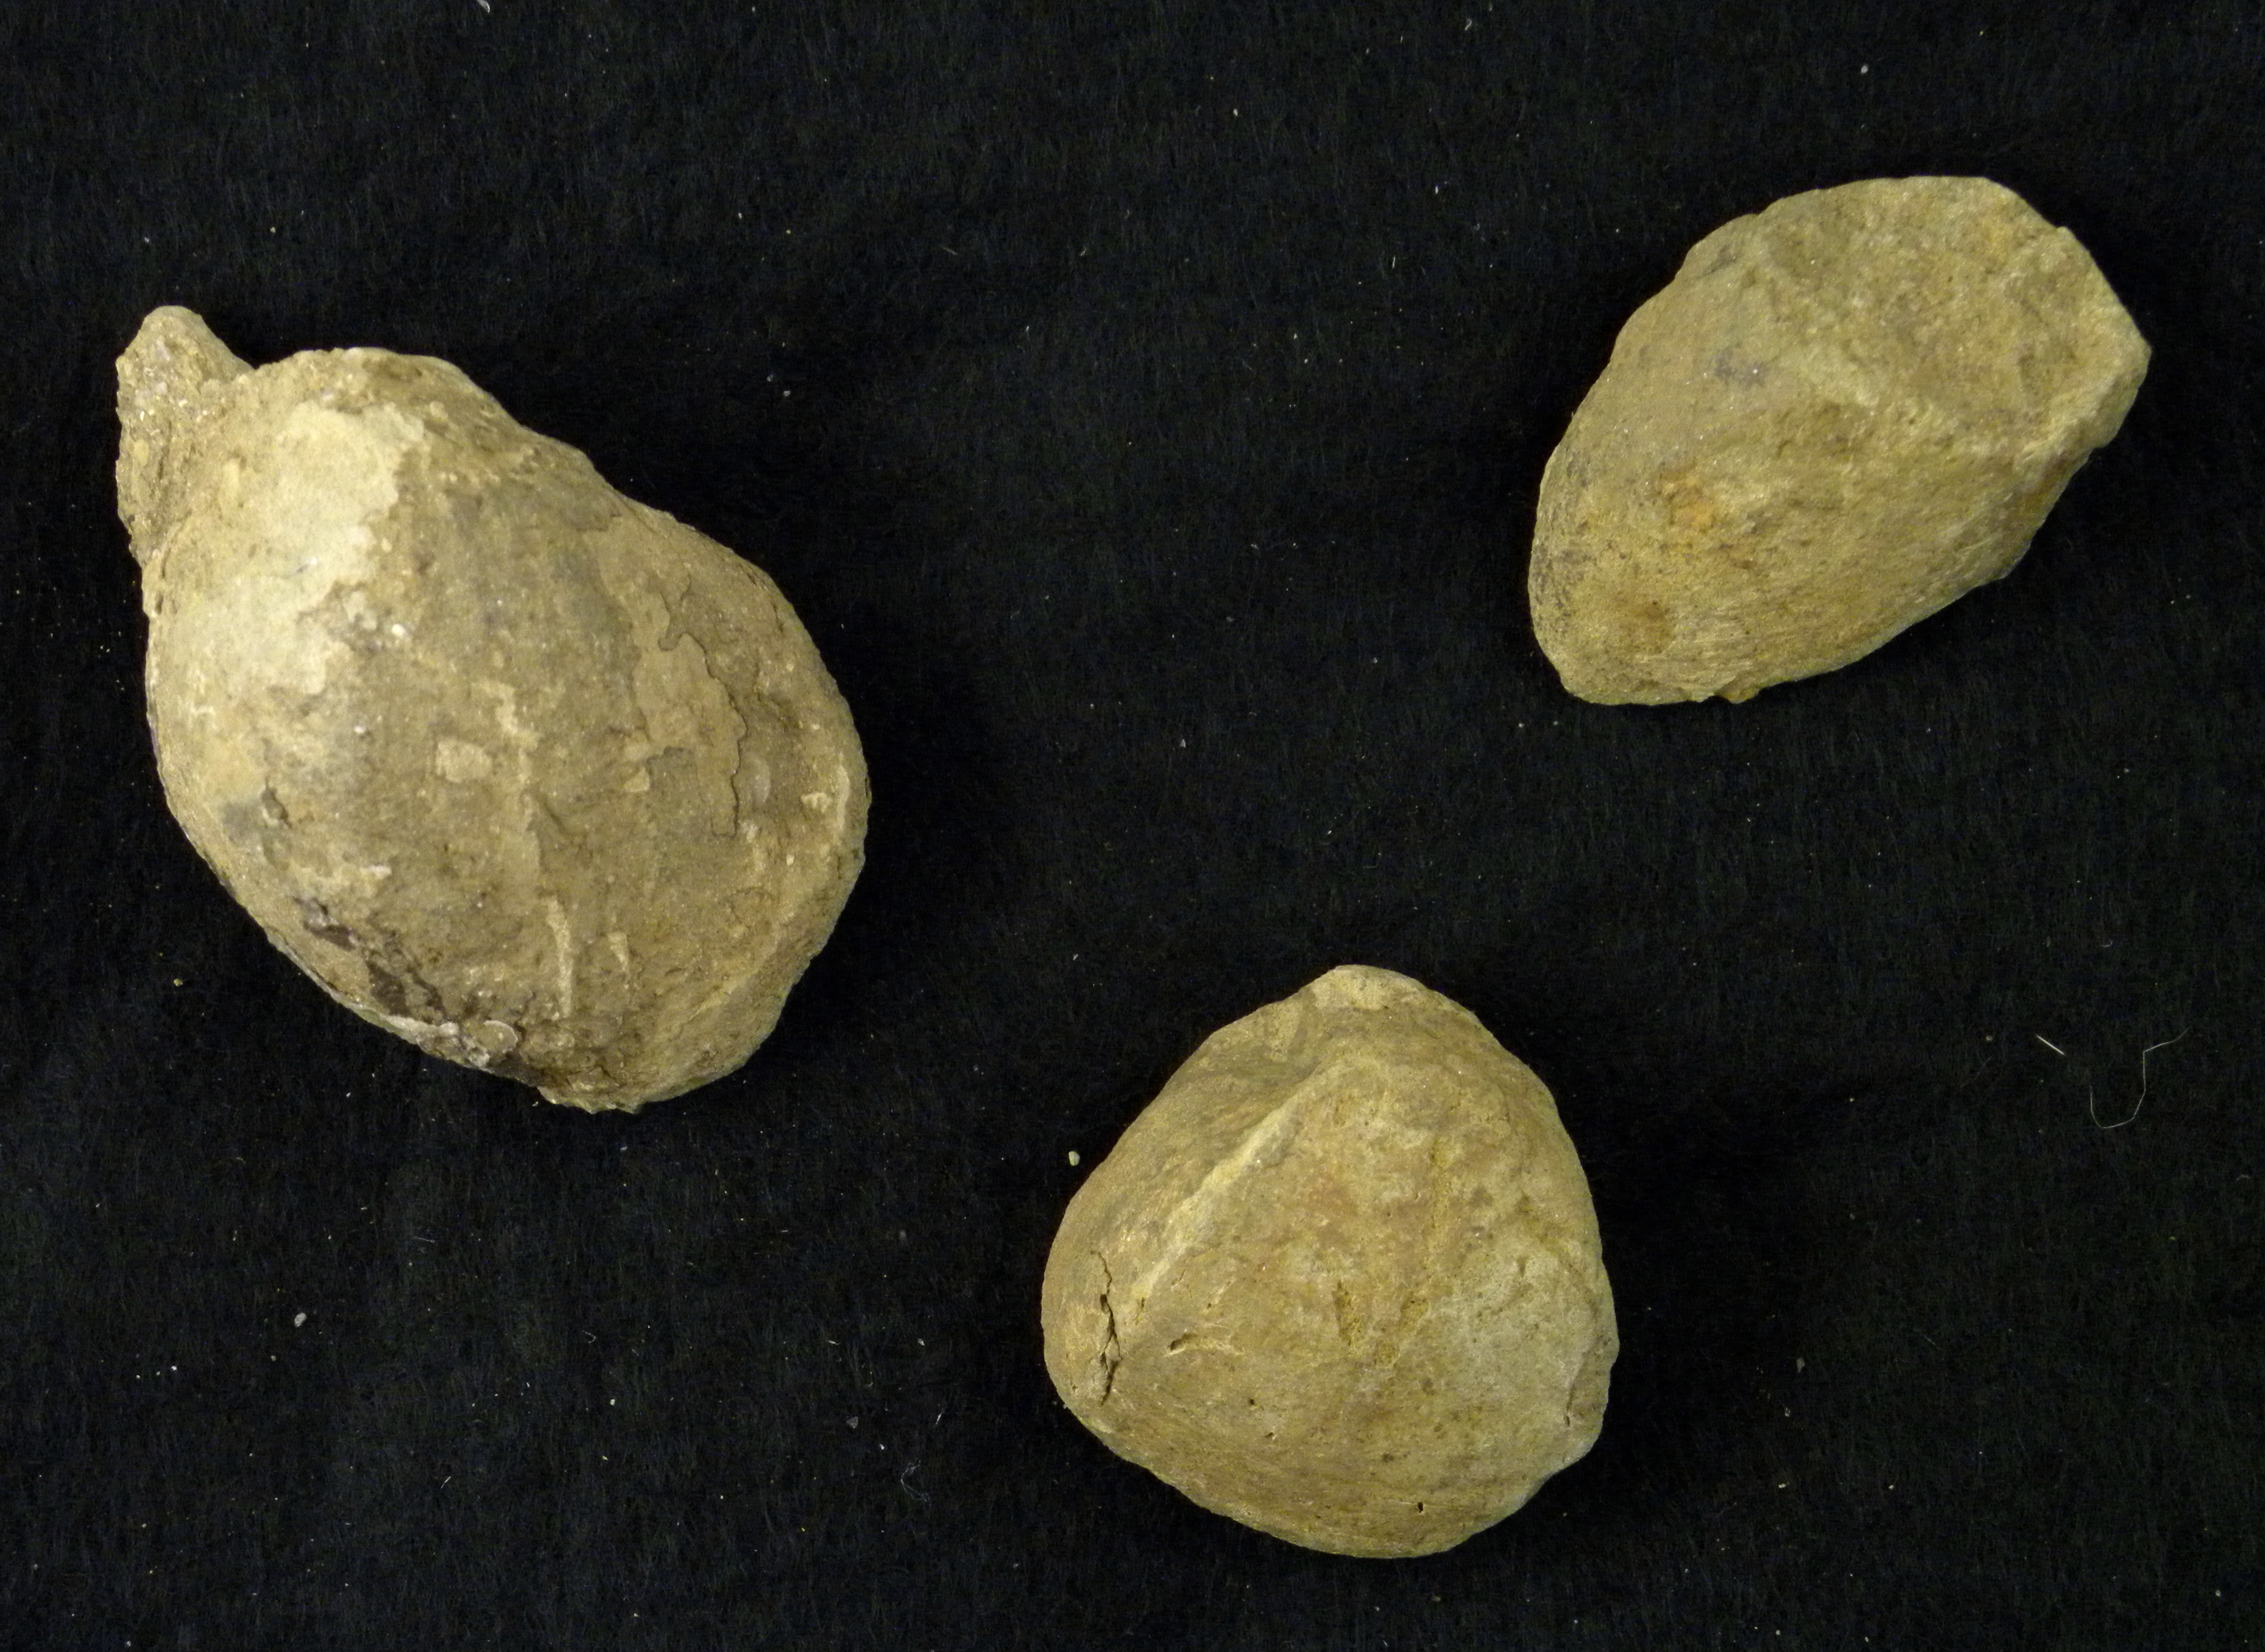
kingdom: Animalia
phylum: Mollusca
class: Cephalopoda
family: Hildoceratidae
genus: Dumortieria
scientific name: Dumortieria levesquei
